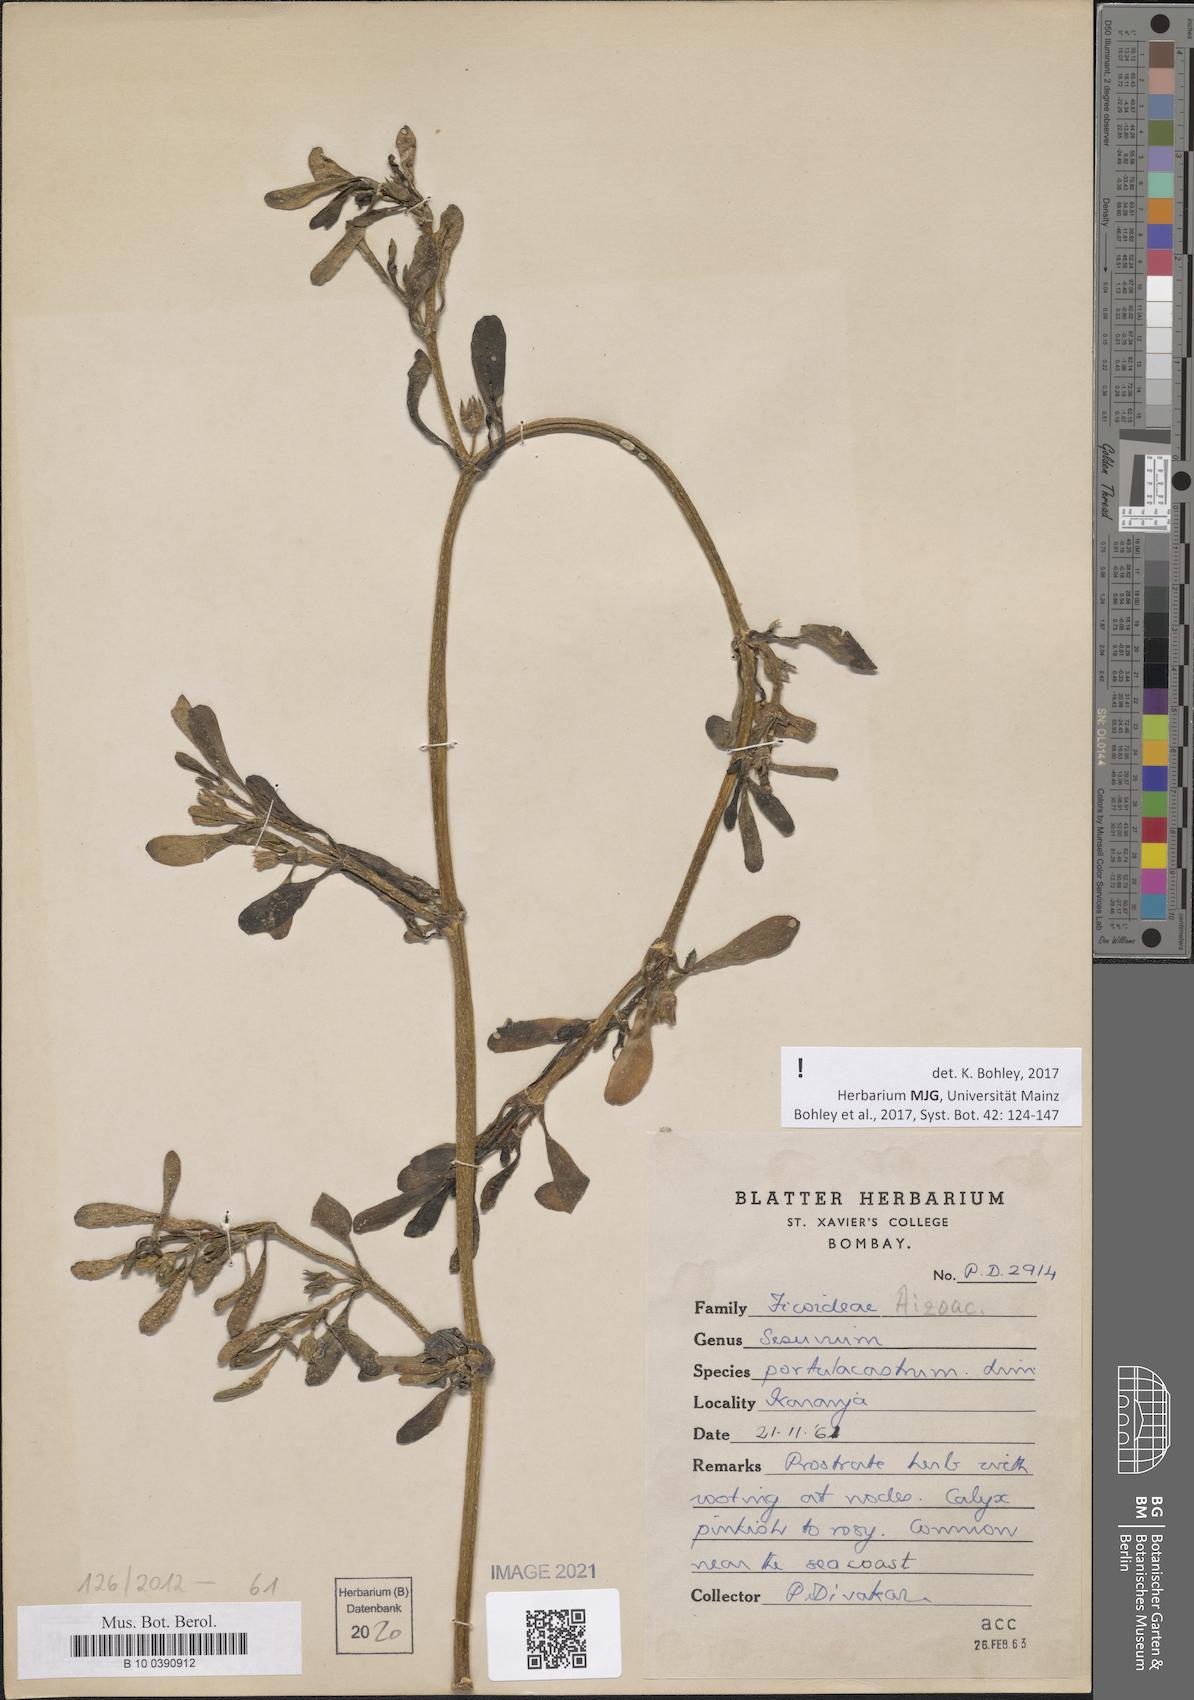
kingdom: Plantae
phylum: Tracheophyta
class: Magnoliopsida
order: Caryophyllales
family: Aizoaceae
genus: Sesuvium
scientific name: Sesuvium portulacastrum
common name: Sea-purslane
